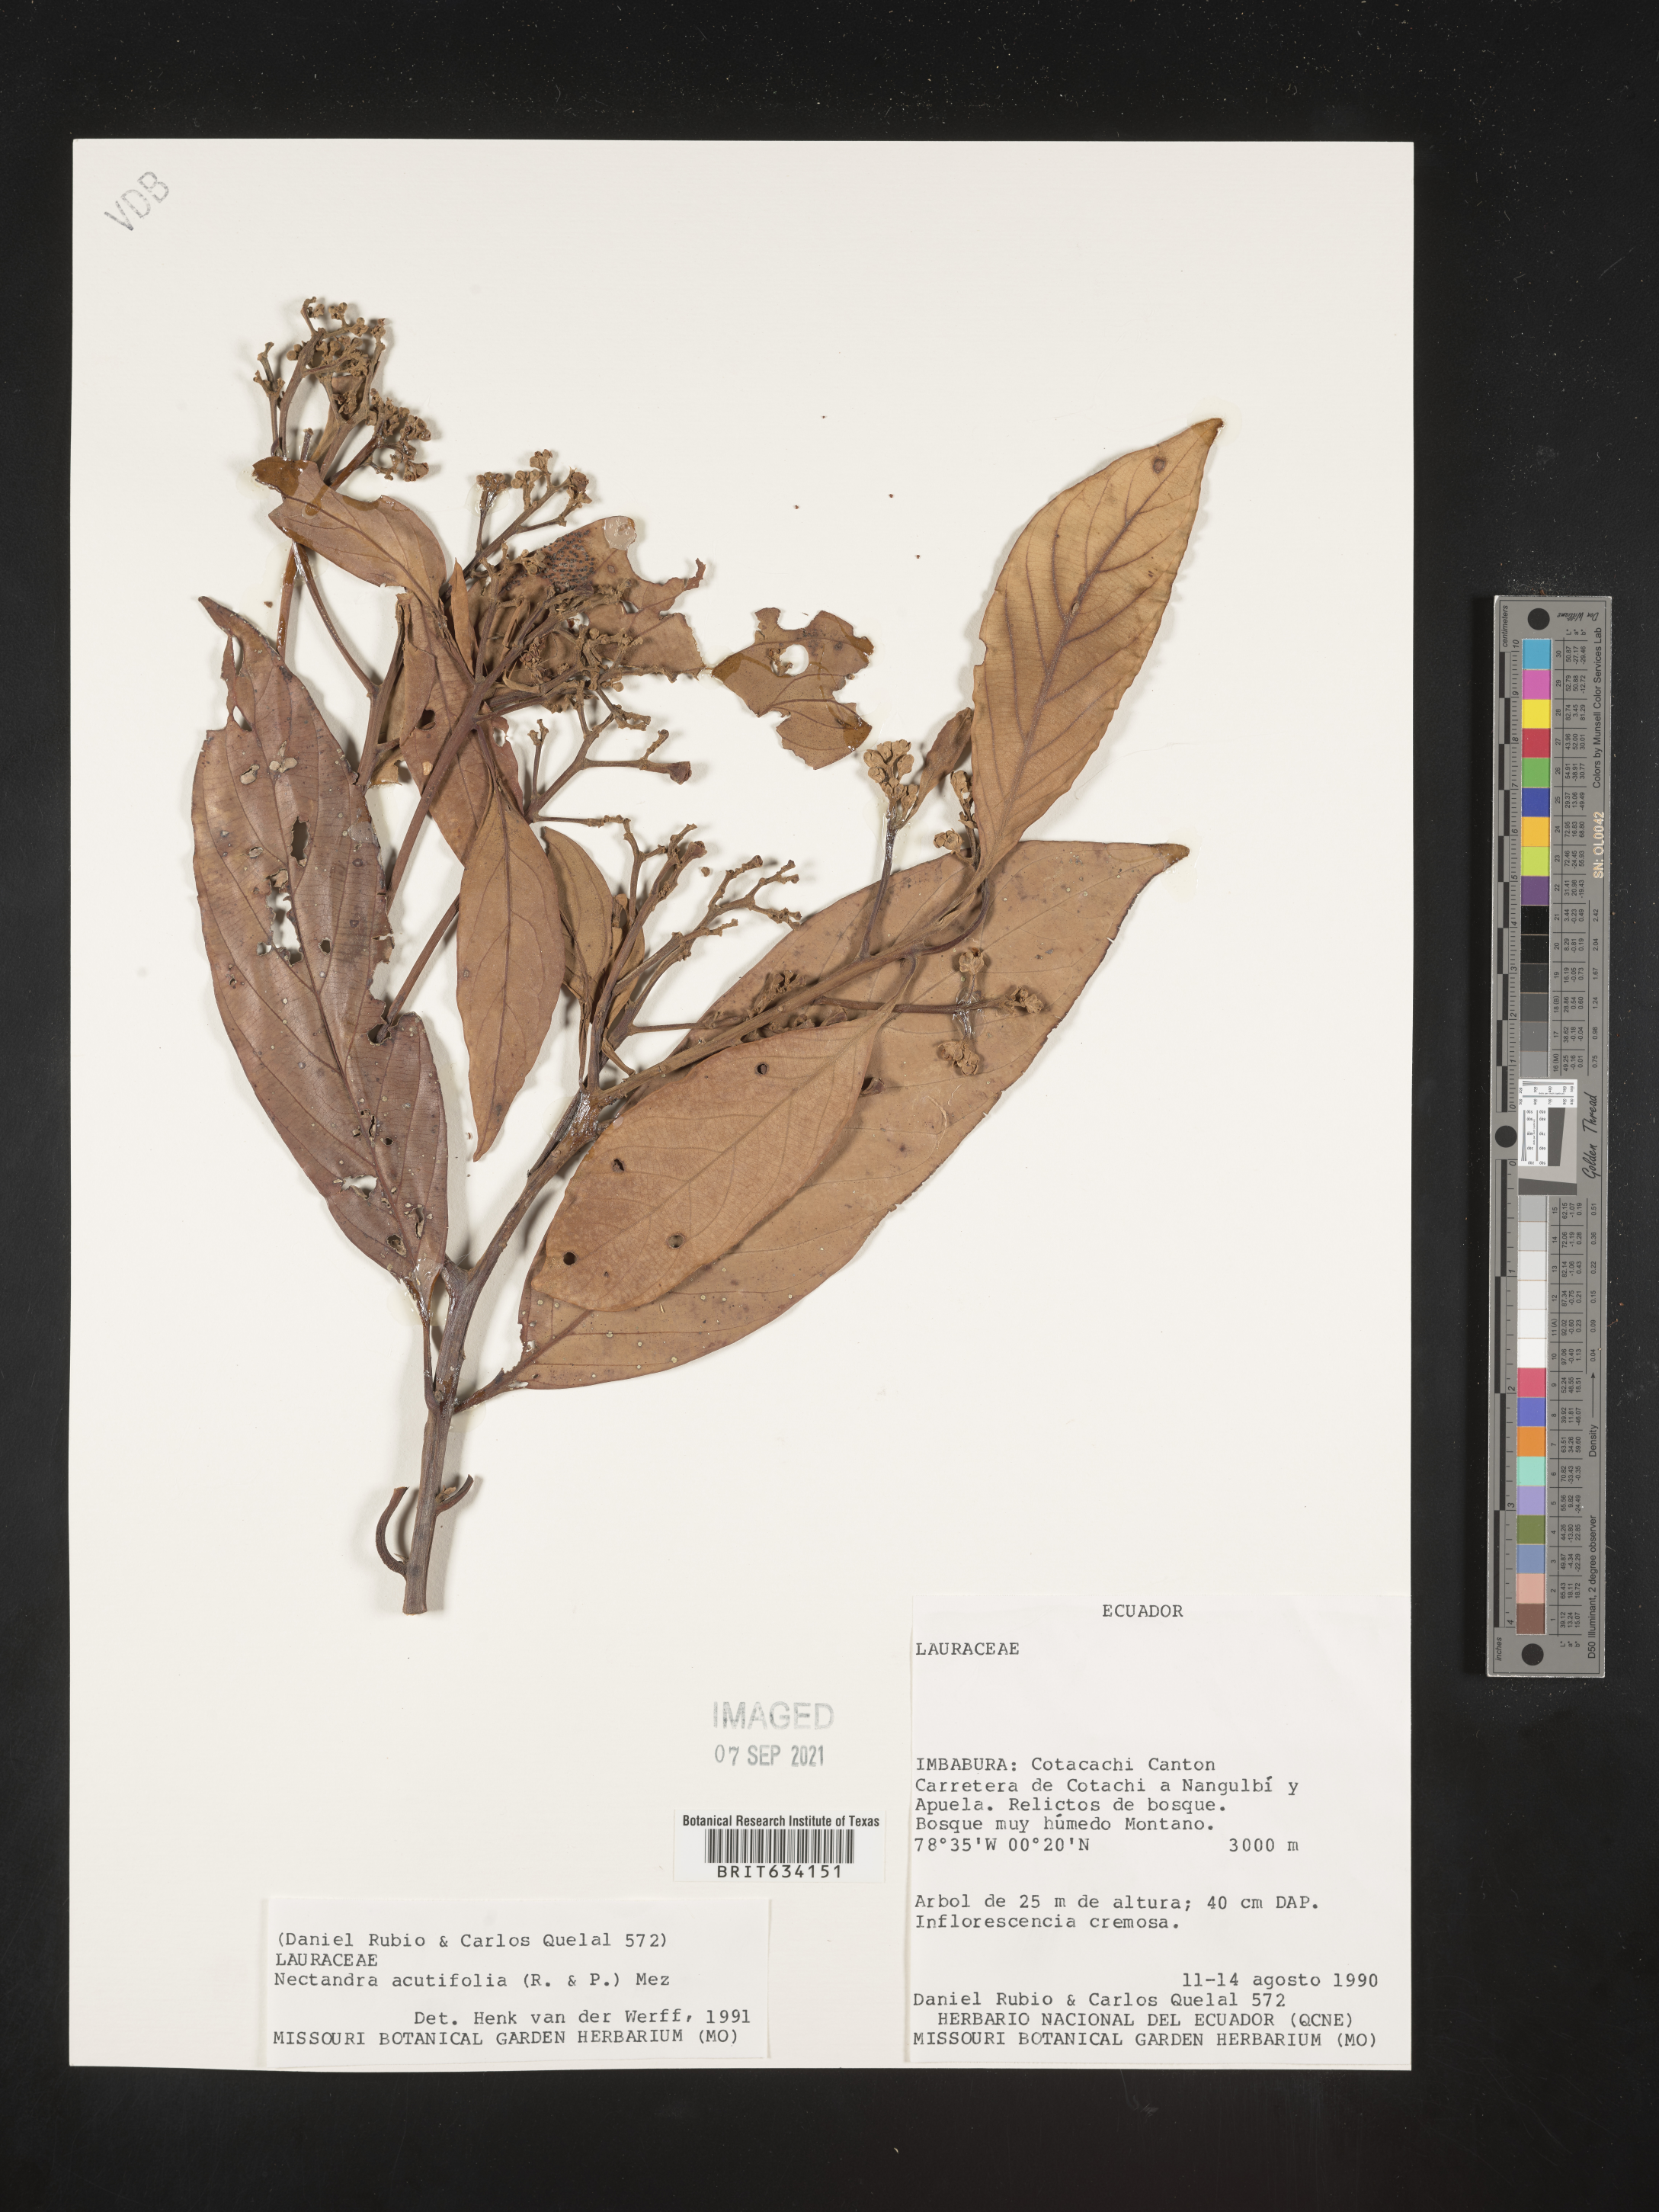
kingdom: Plantae
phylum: Tracheophyta
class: Magnoliopsida
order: Laurales
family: Lauraceae
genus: Nectandra
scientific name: Nectandra
